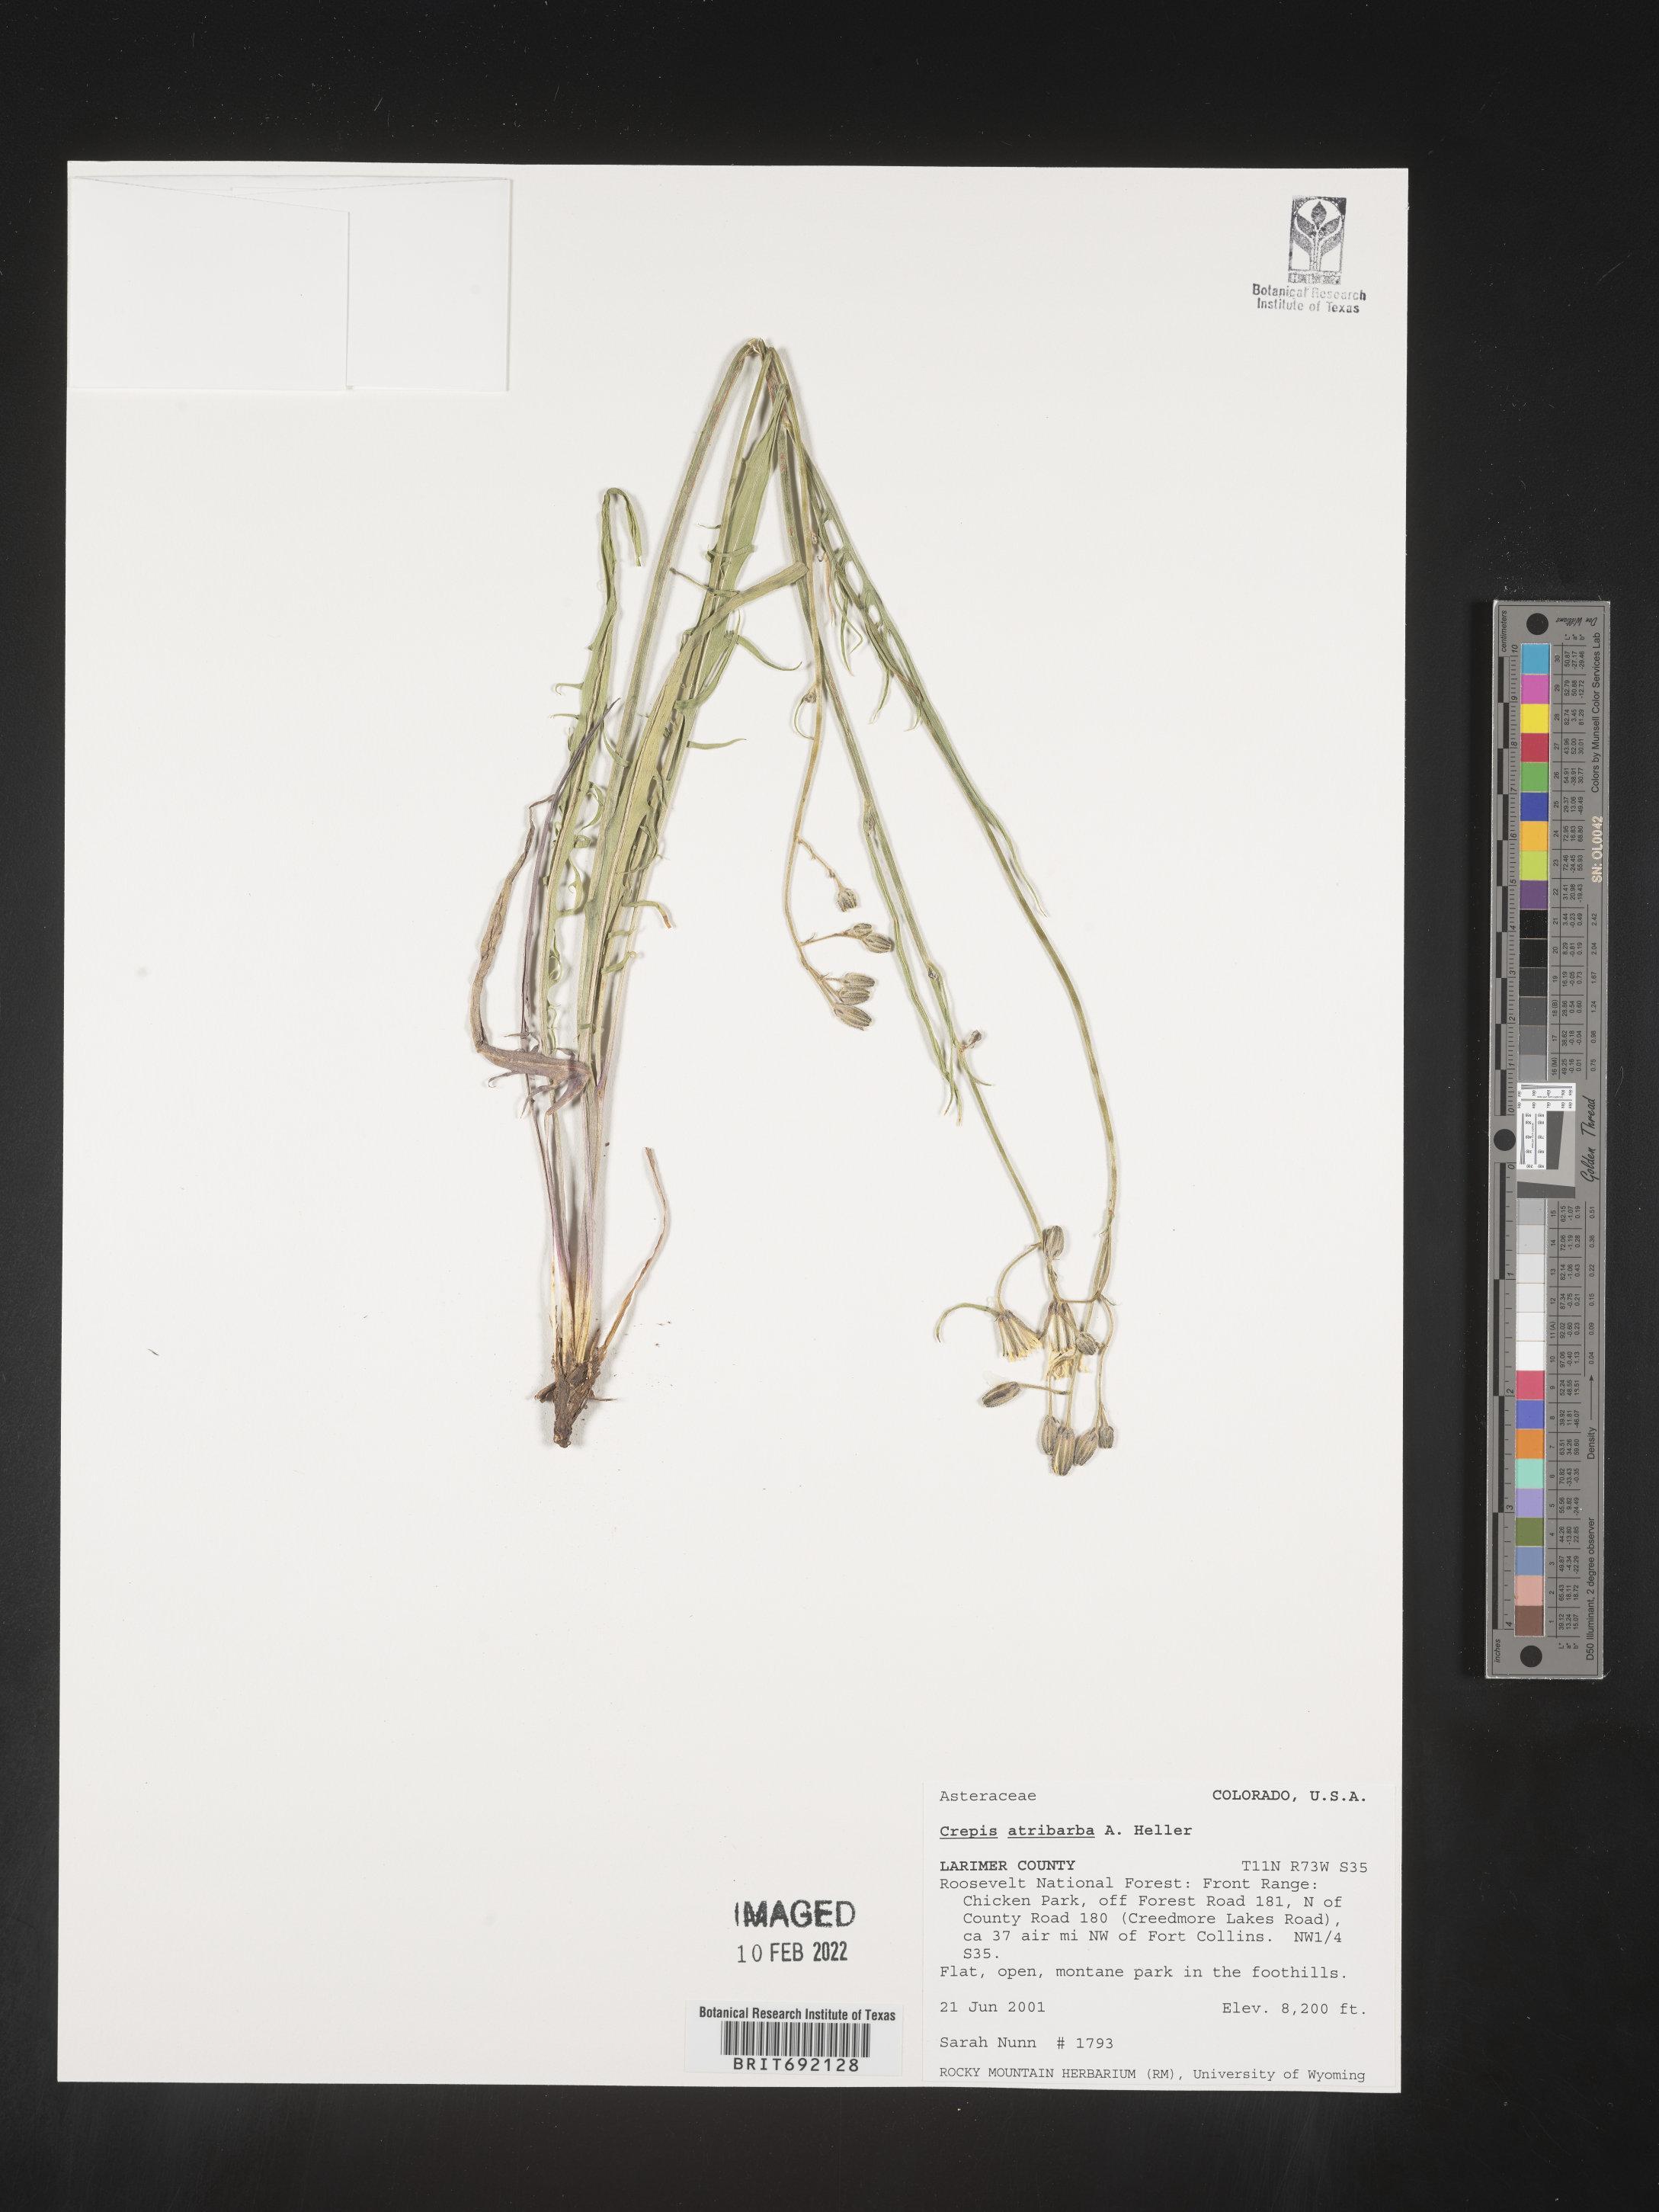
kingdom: Plantae
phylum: Tracheophyta
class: Magnoliopsida
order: Asterales
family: Asteraceae
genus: Crepis
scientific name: Crepis
